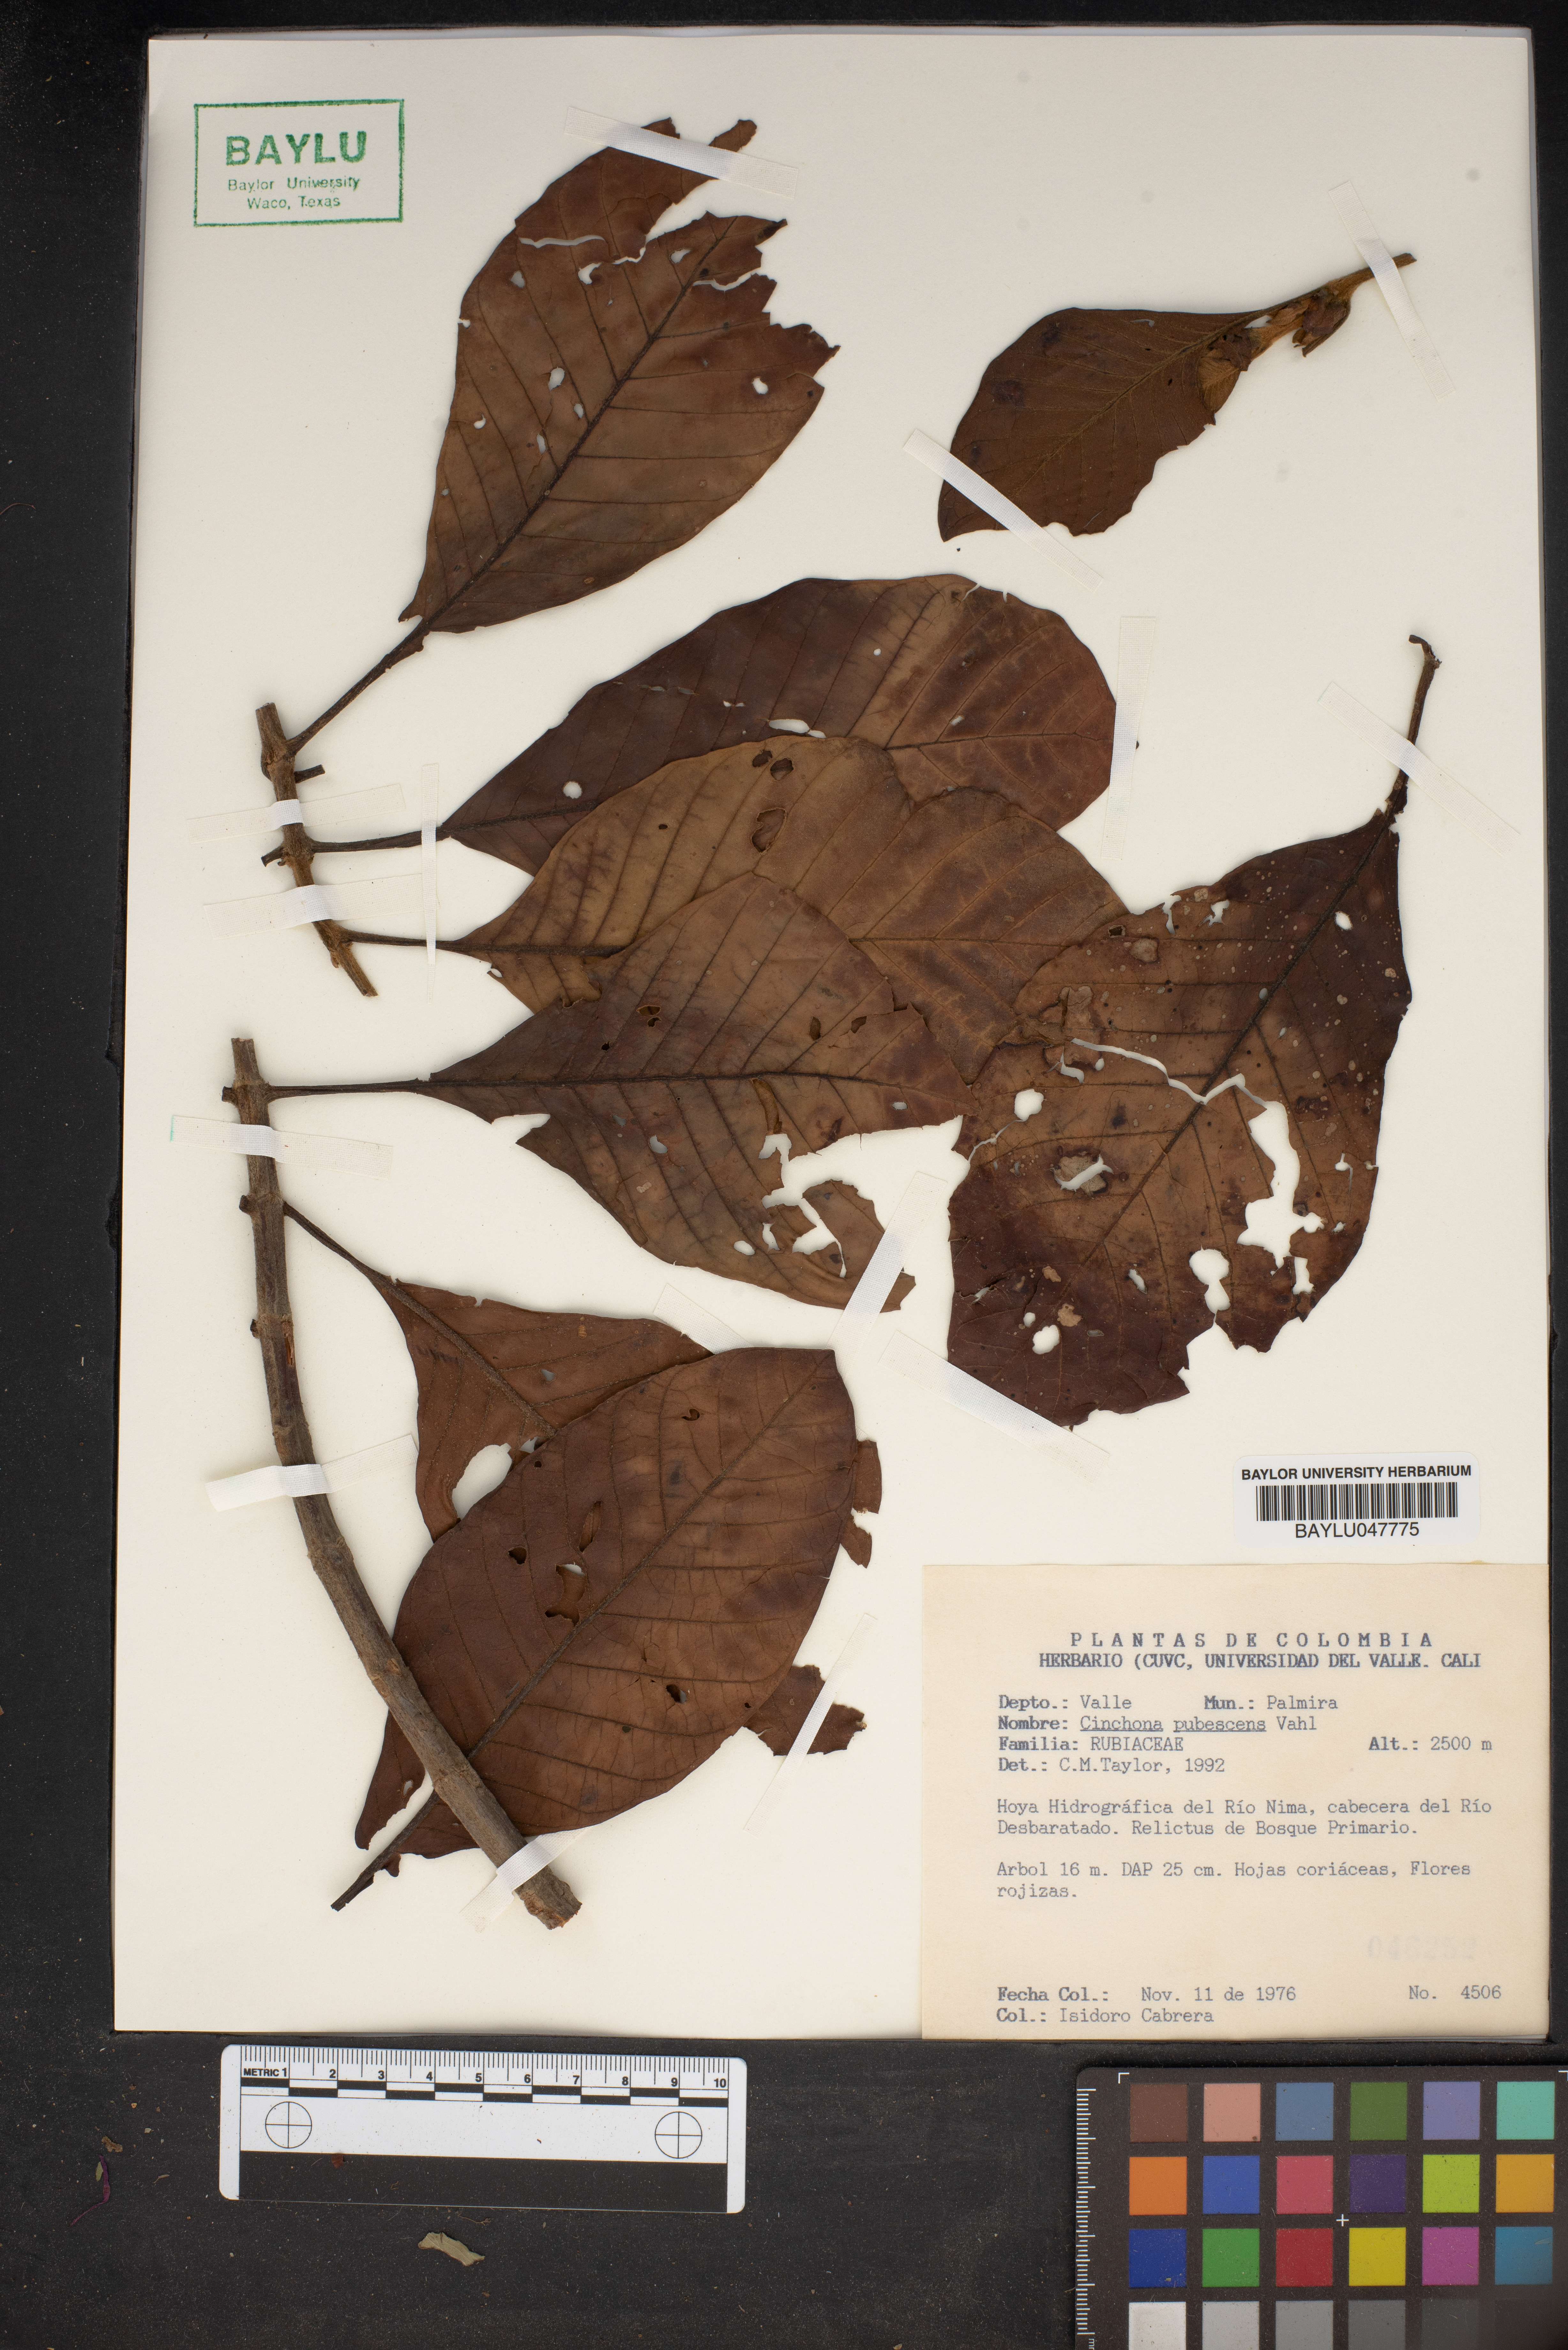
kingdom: Plantae
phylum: Tracheophyta
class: Magnoliopsida
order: Gentianales
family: Rubiaceae
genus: Cinchona
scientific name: Cinchona pubescens
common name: Quinine
